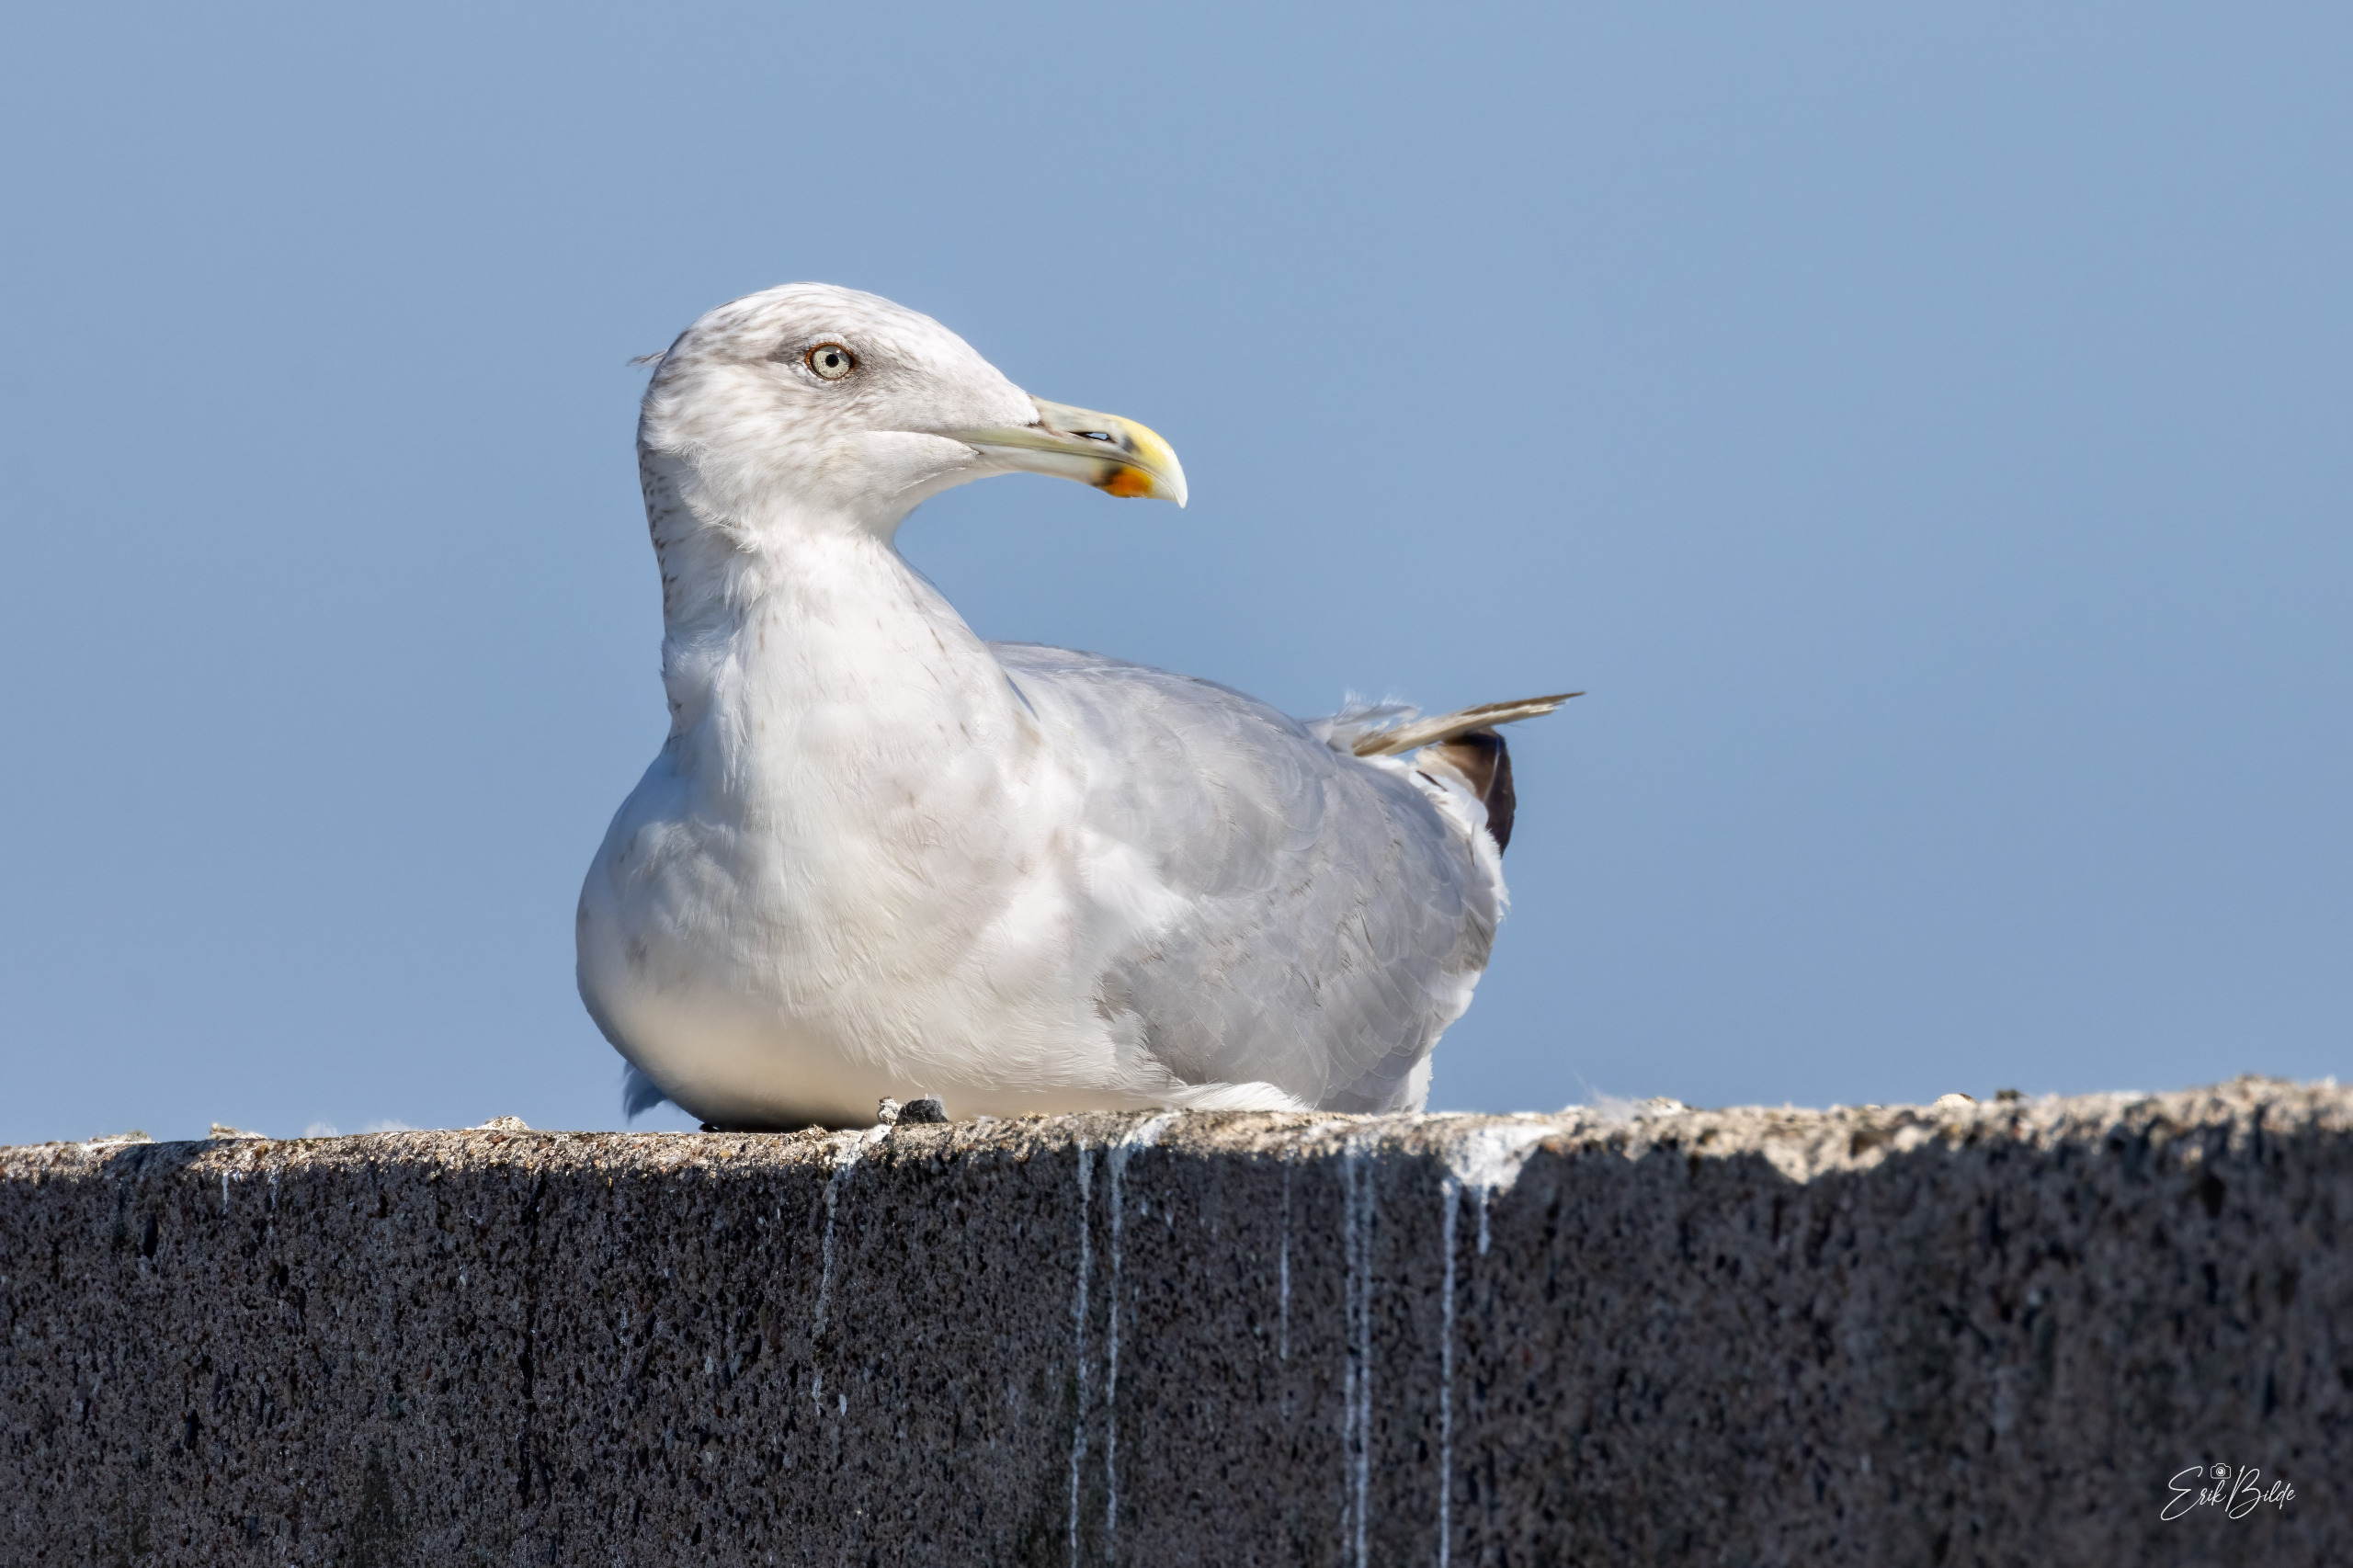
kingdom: Animalia
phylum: Chordata
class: Aves
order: Charadriiformes
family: Laridae
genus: Larus
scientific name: Larus argentatus
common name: Sølvmåge
